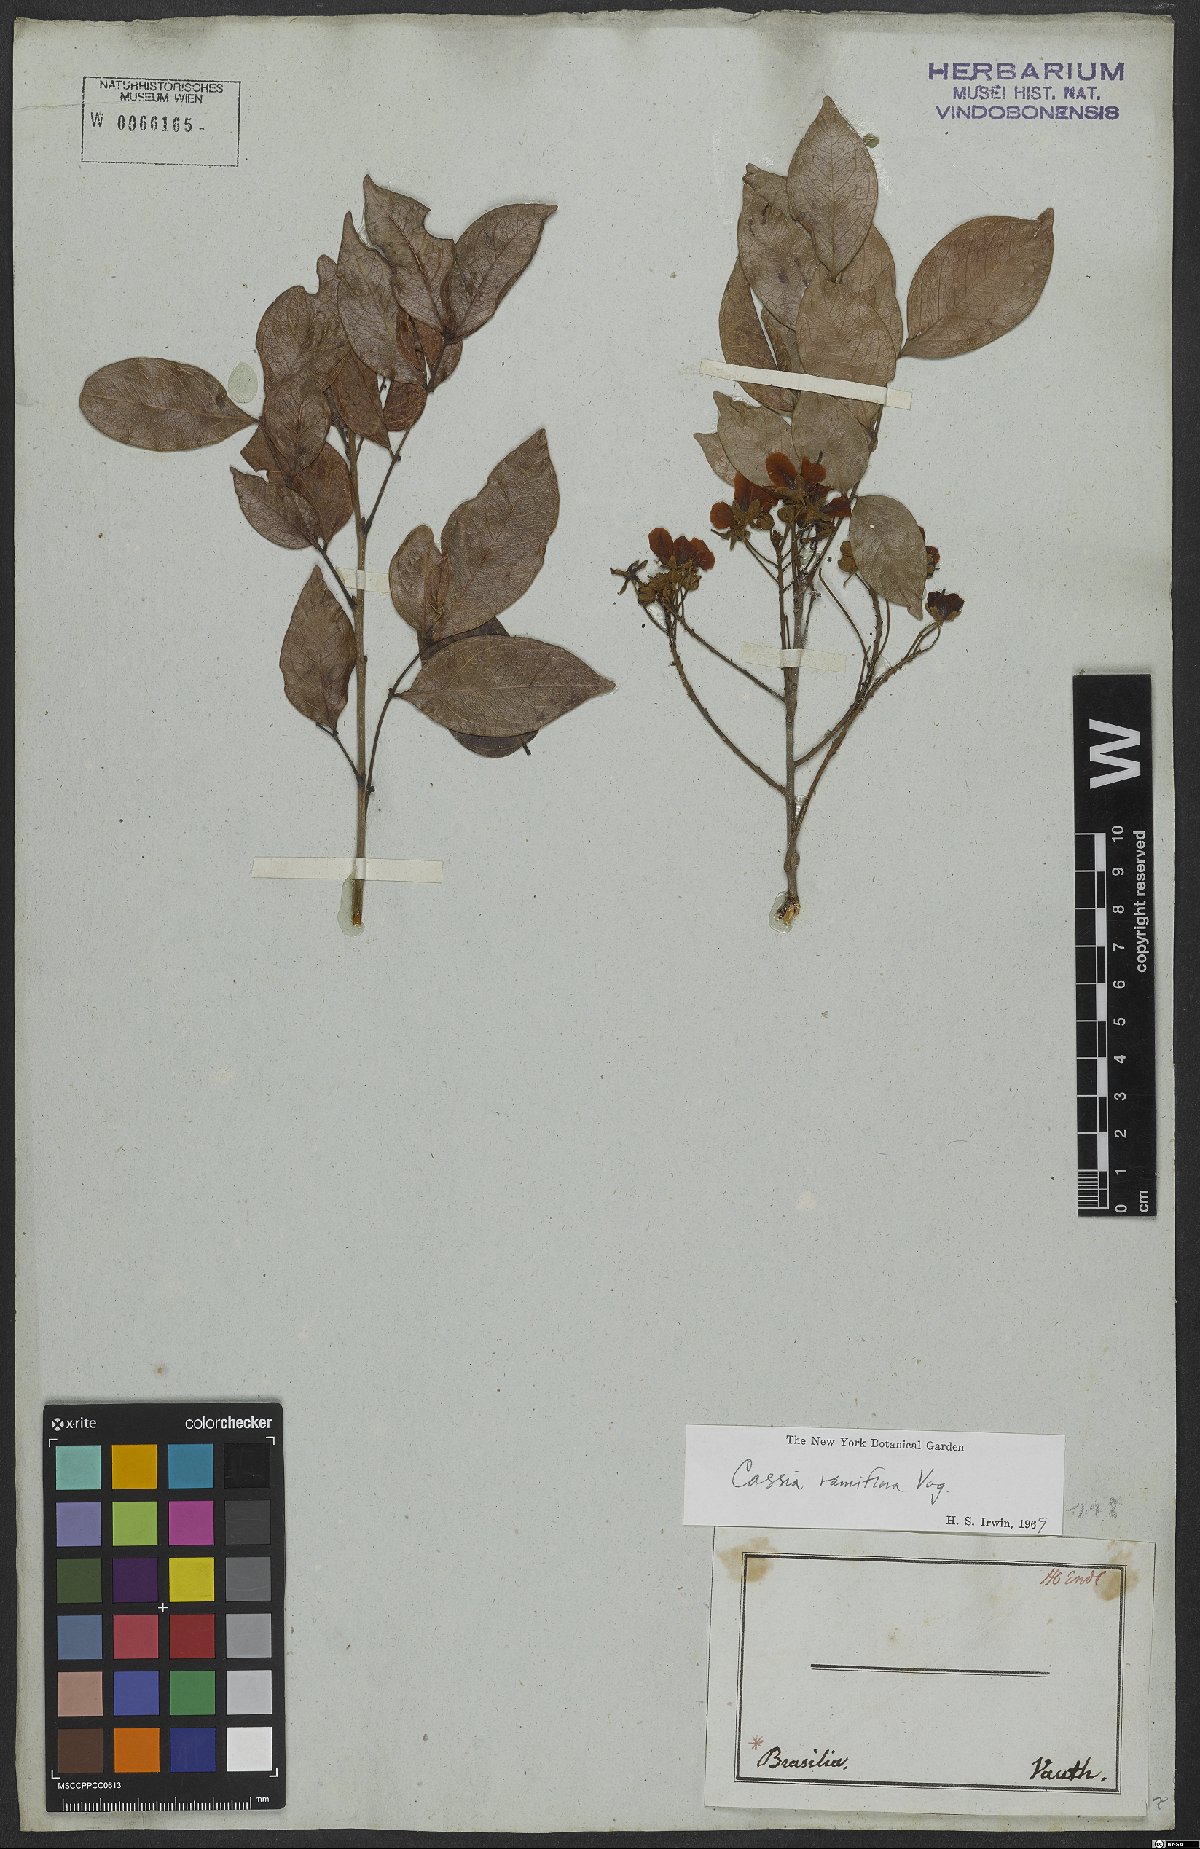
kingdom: Plantae
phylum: Tracheophyta
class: Magnoliopsida
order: Fabales
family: Fabaceae
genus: Chamaecrista
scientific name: Chamaecrista ensiformis
